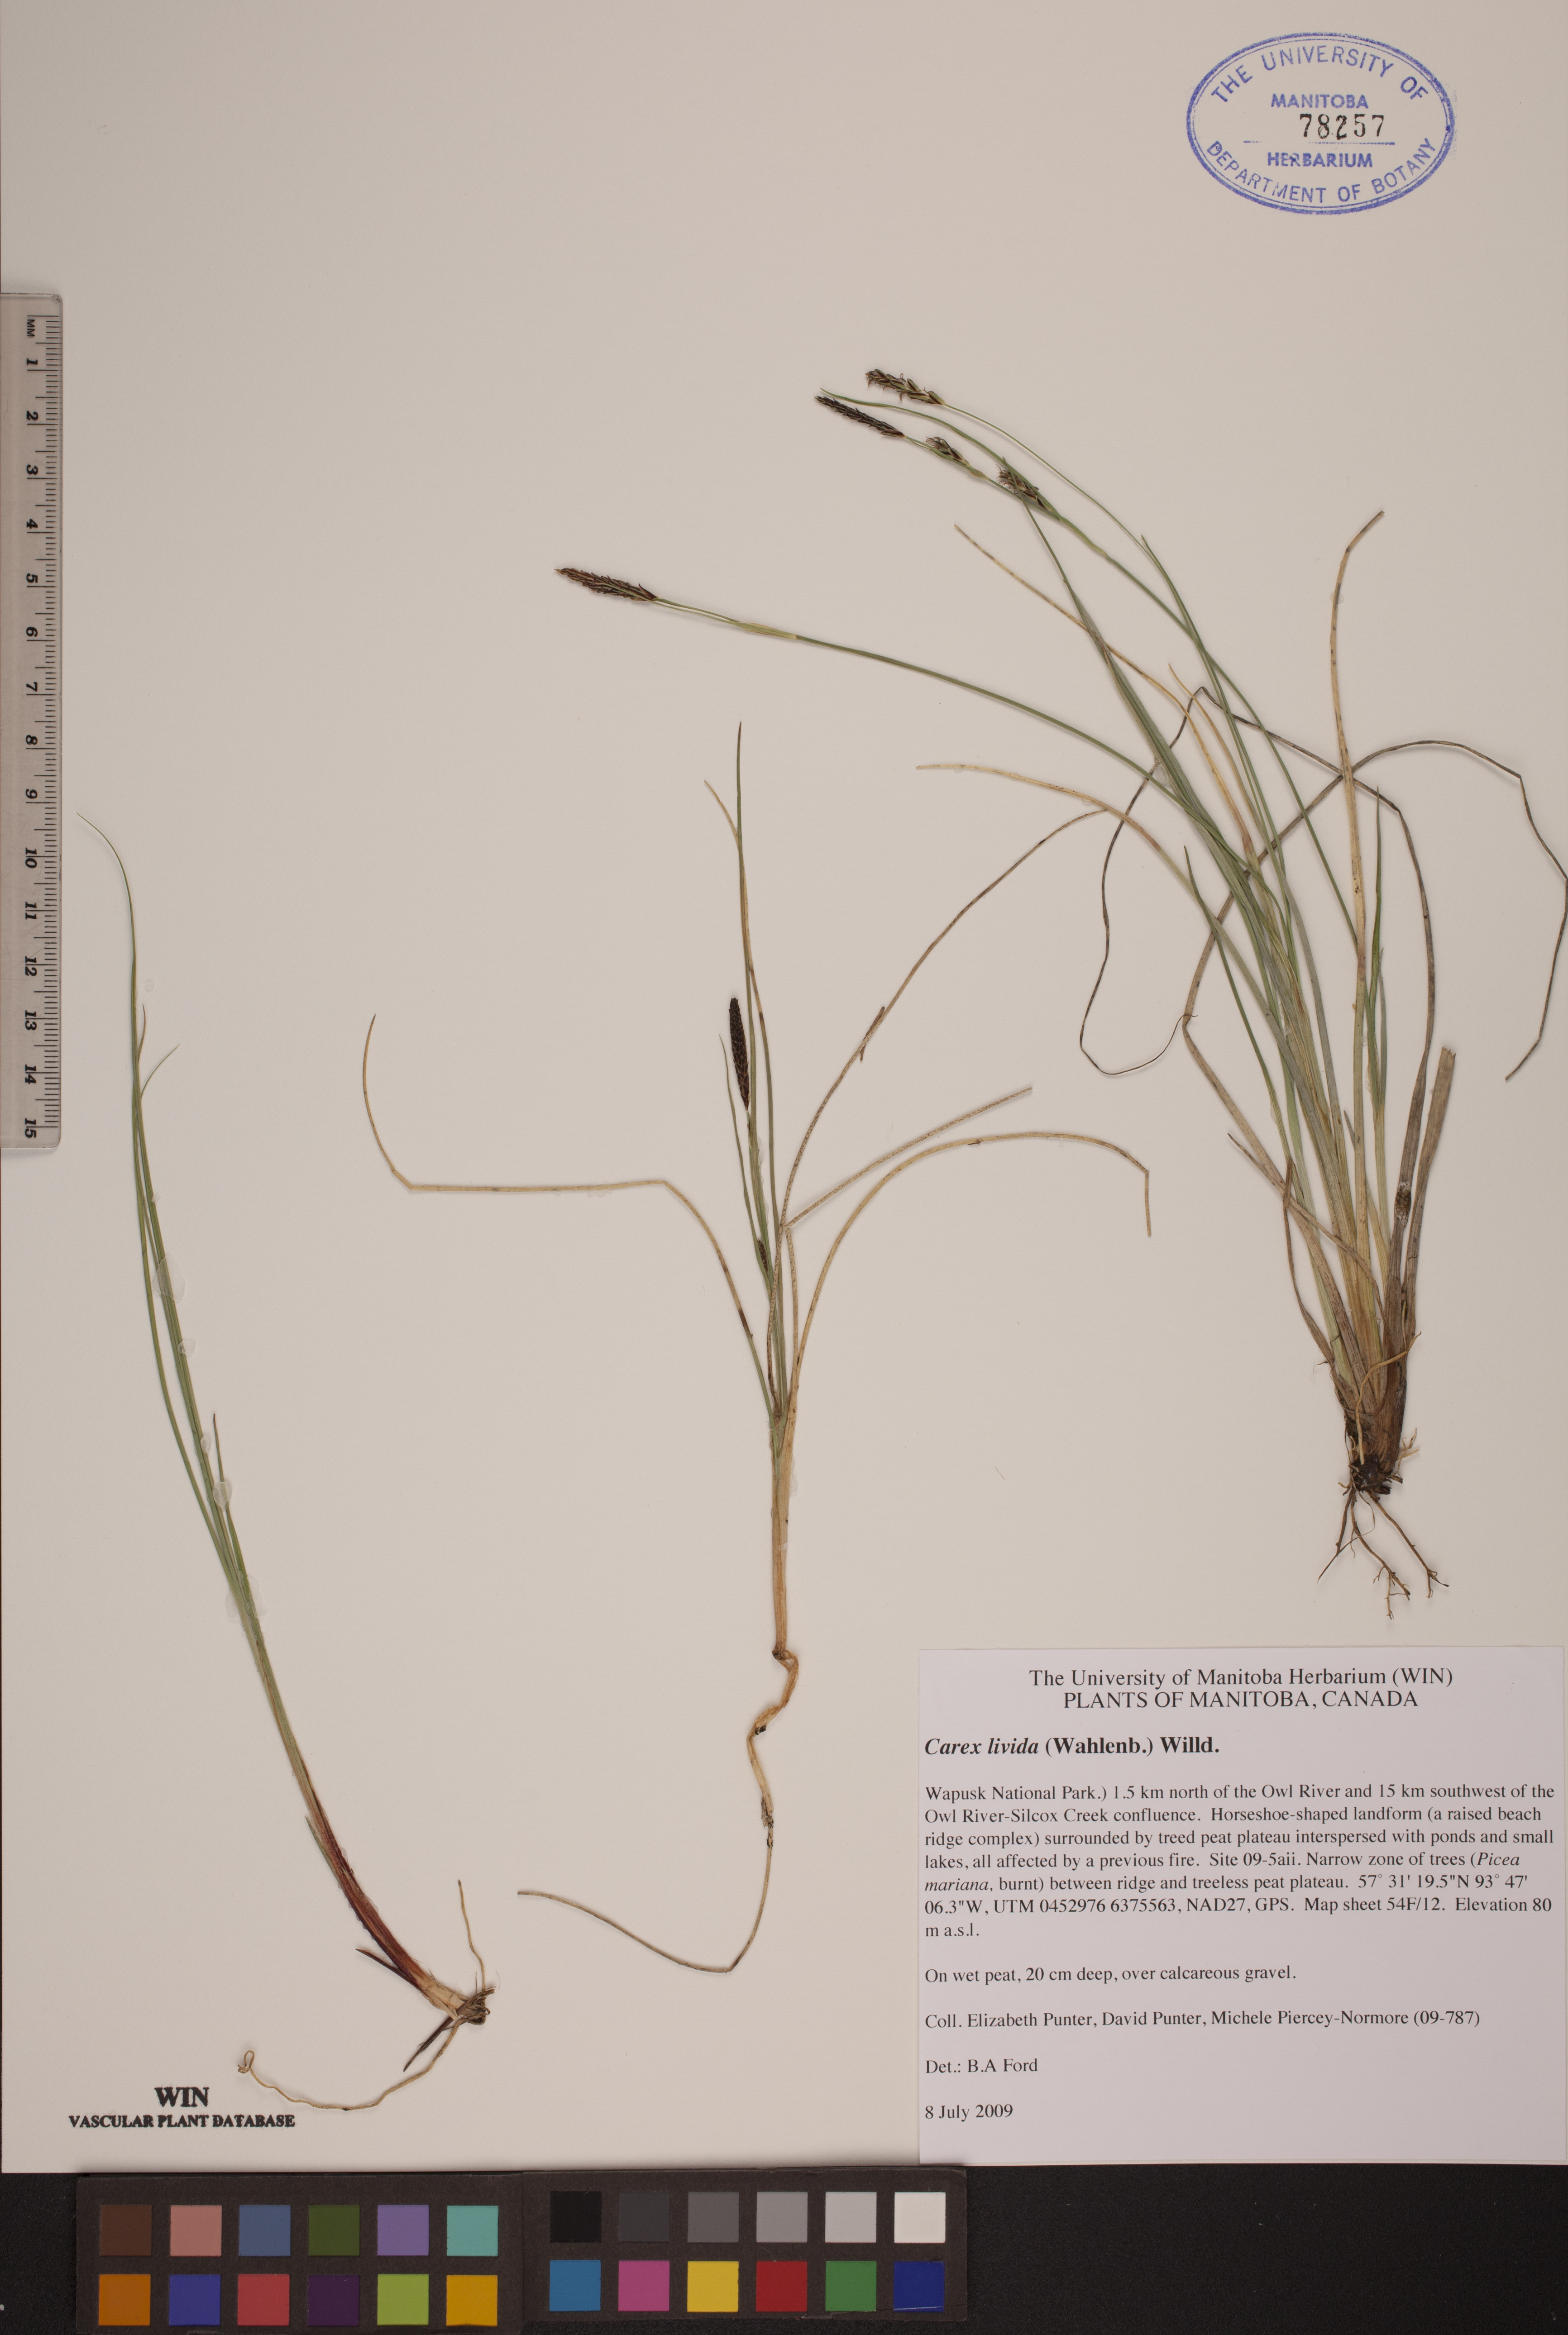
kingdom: Plantae
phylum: Tracheophyta
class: Liliopsida
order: Poales
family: Cyperaceae
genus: Carex
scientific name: Carex livida
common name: Livid sedge
